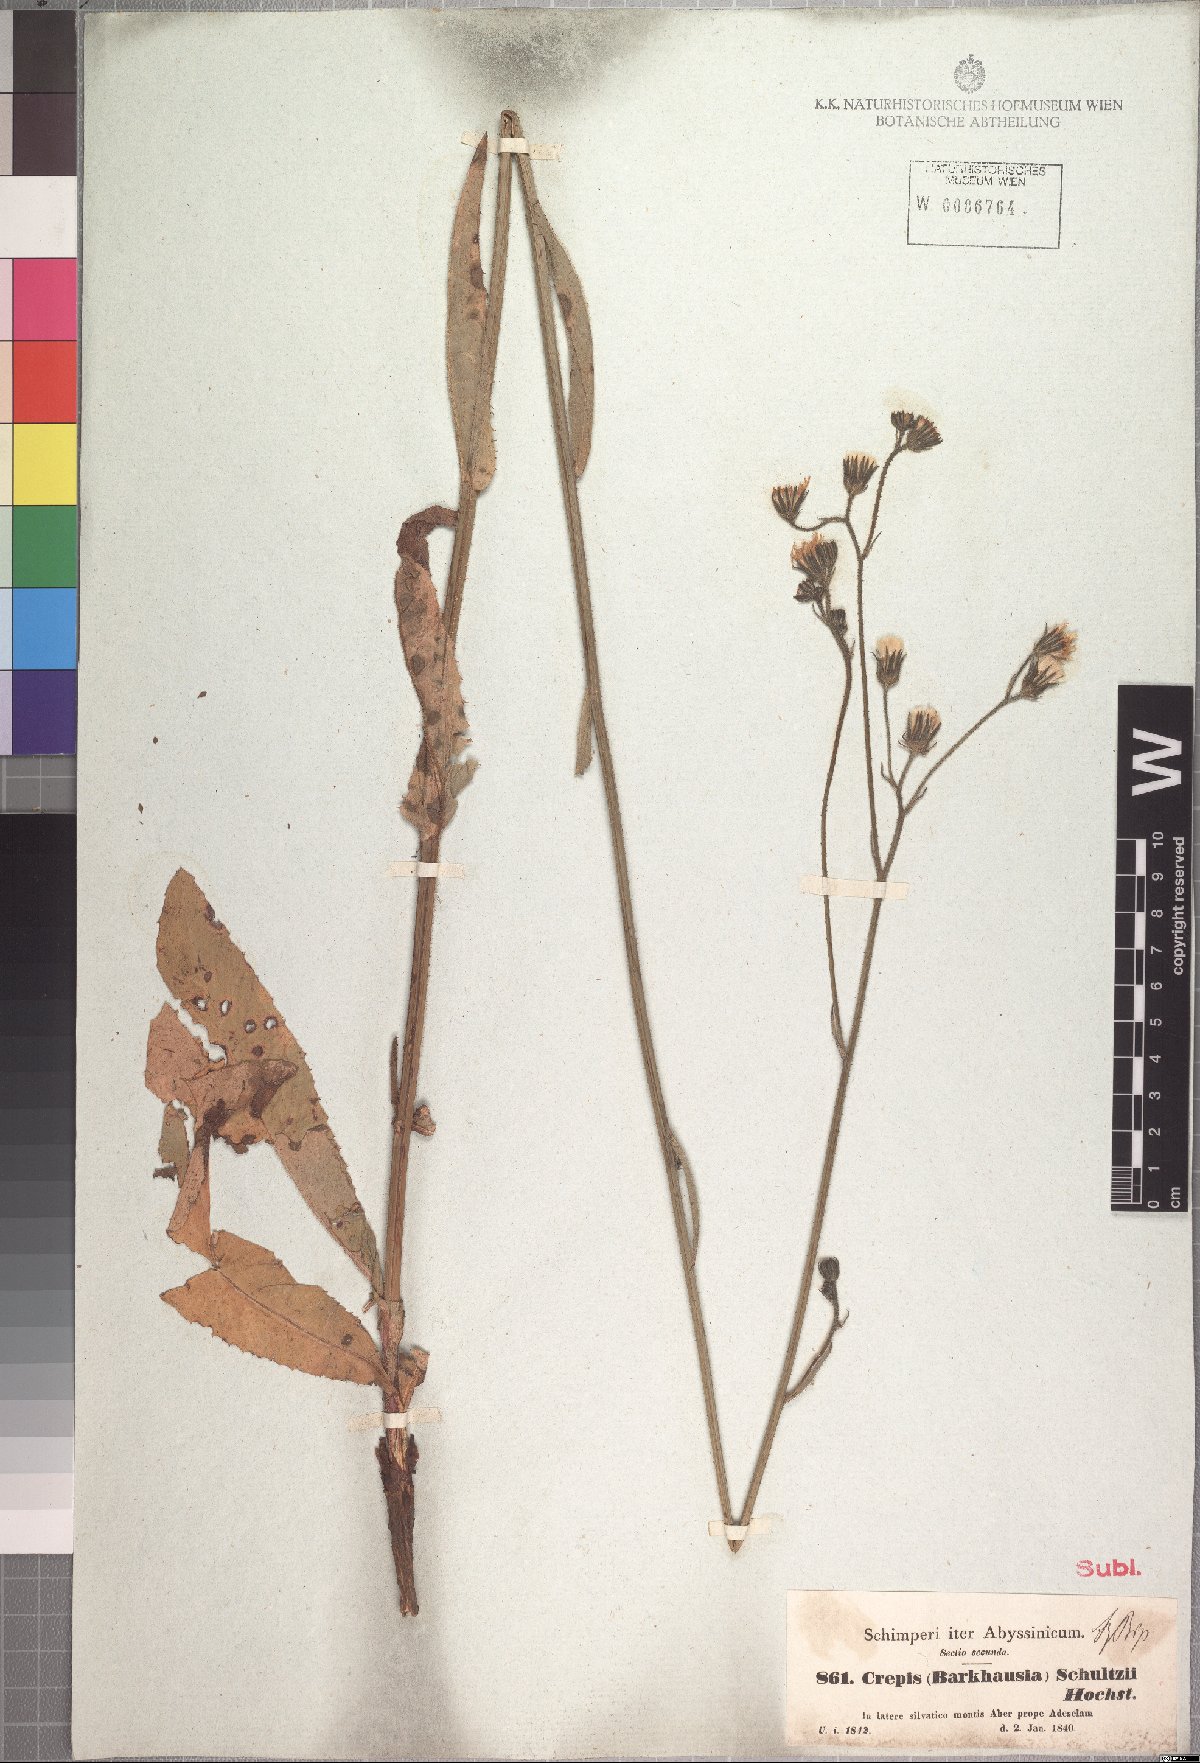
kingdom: Plantae
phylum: Tracheophyta
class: Magnoliopsida
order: Asterales
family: Asteraceae
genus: Crepis
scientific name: Crepis schultzii
